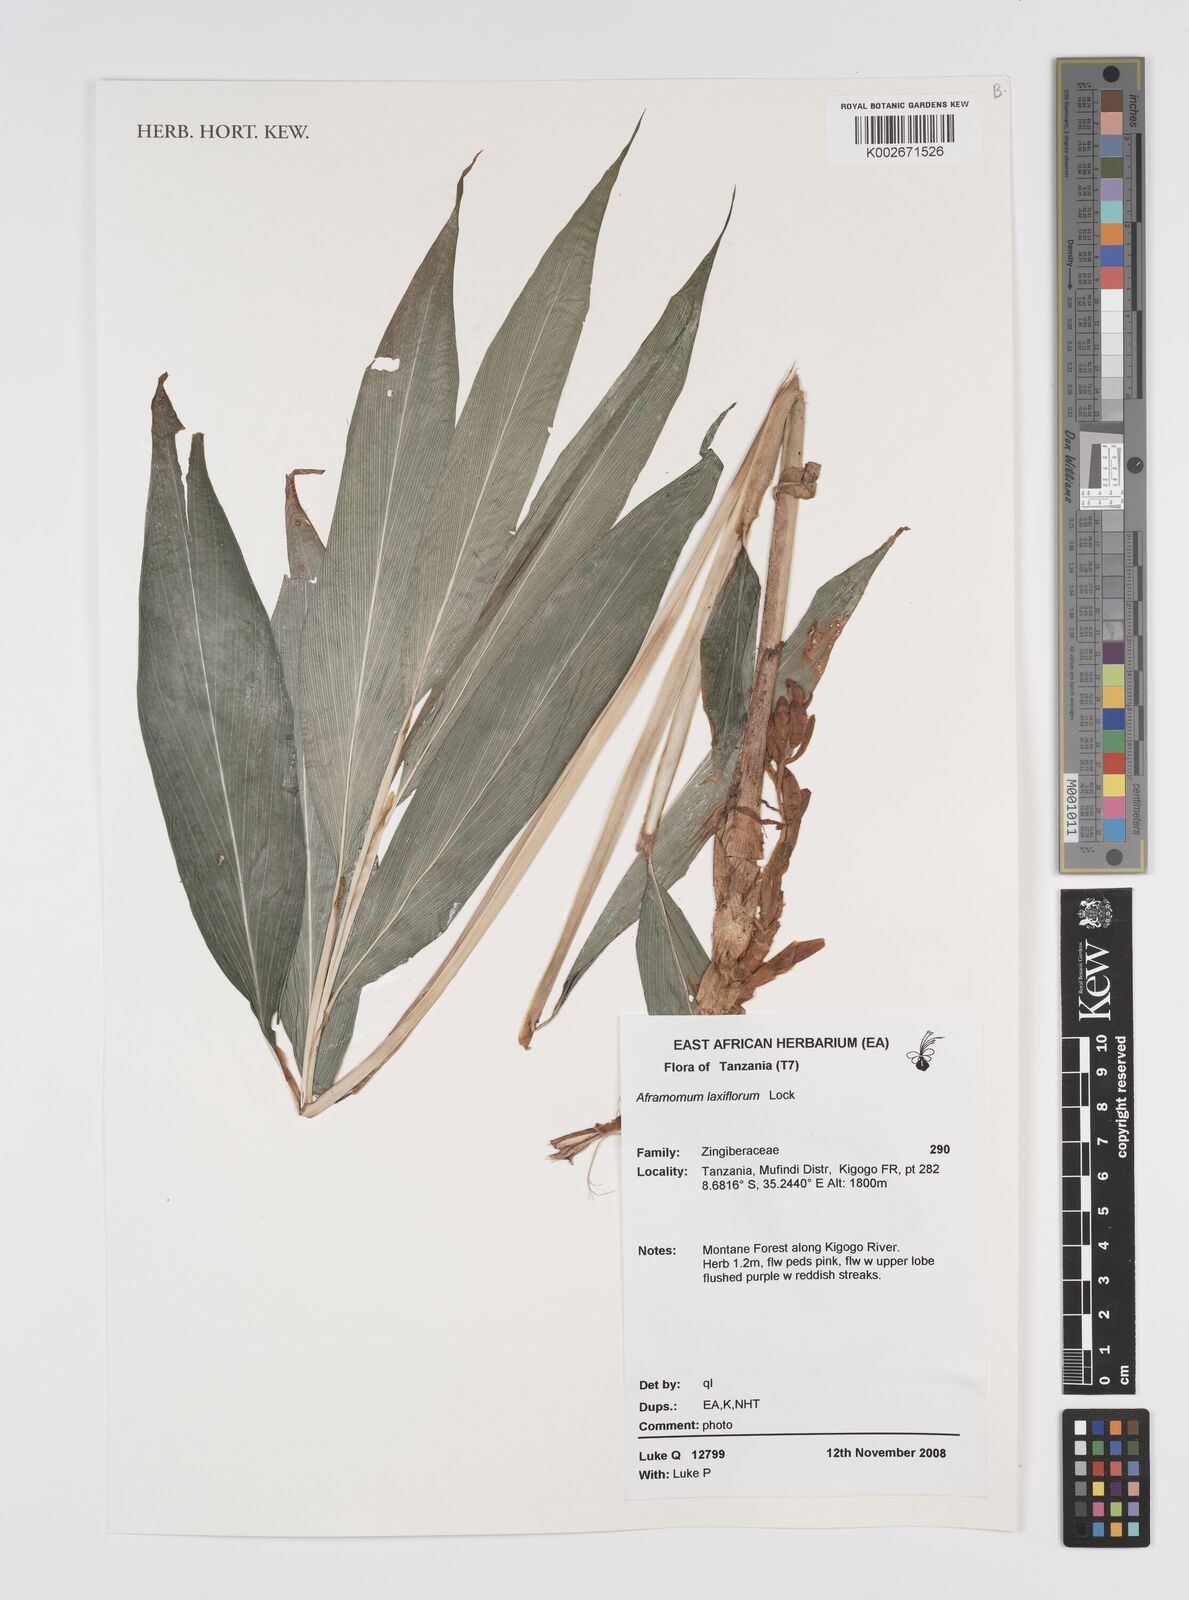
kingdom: Plantae
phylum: Tracheophyta
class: Liliopsida
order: Zingiberales
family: Zingiberaceae
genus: Aframomum
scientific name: Aframomum laxiflorum
